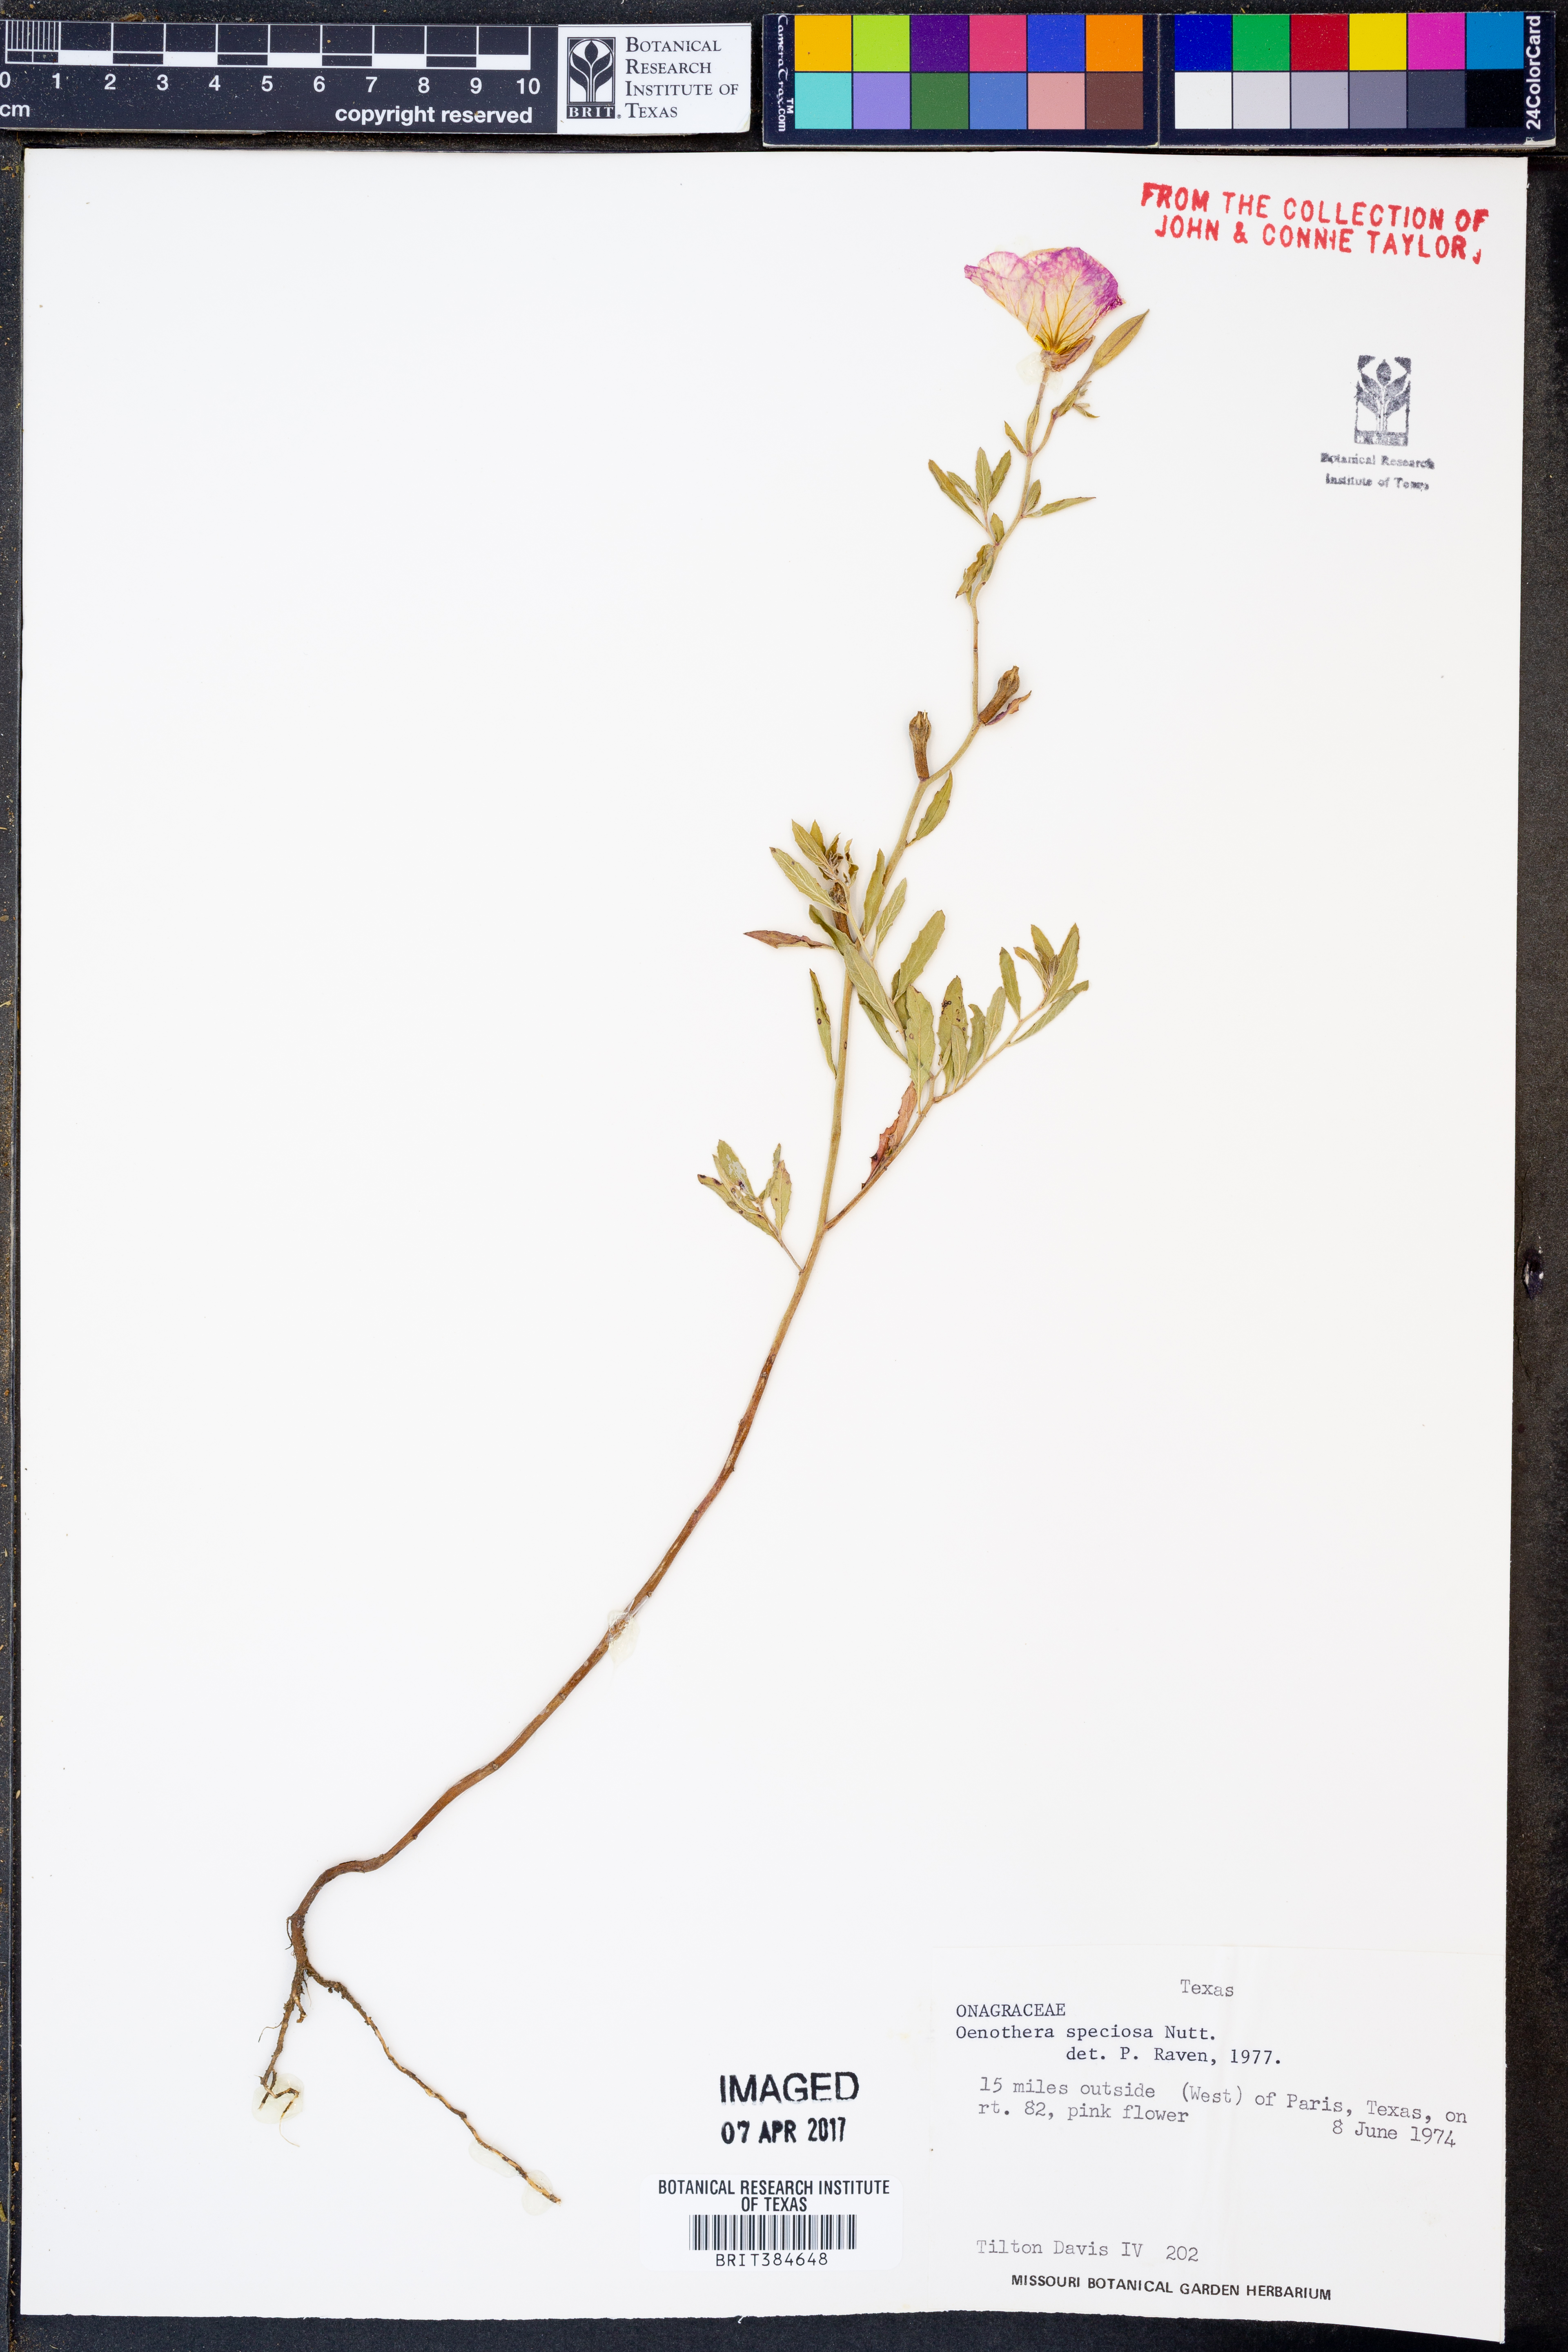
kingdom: Plantae
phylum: Tracheophyta
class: Magnoliopsida
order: Myrtales
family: Onagraceae
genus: Oenothera
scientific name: Oenothera speciosa
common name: White evening-primrose
